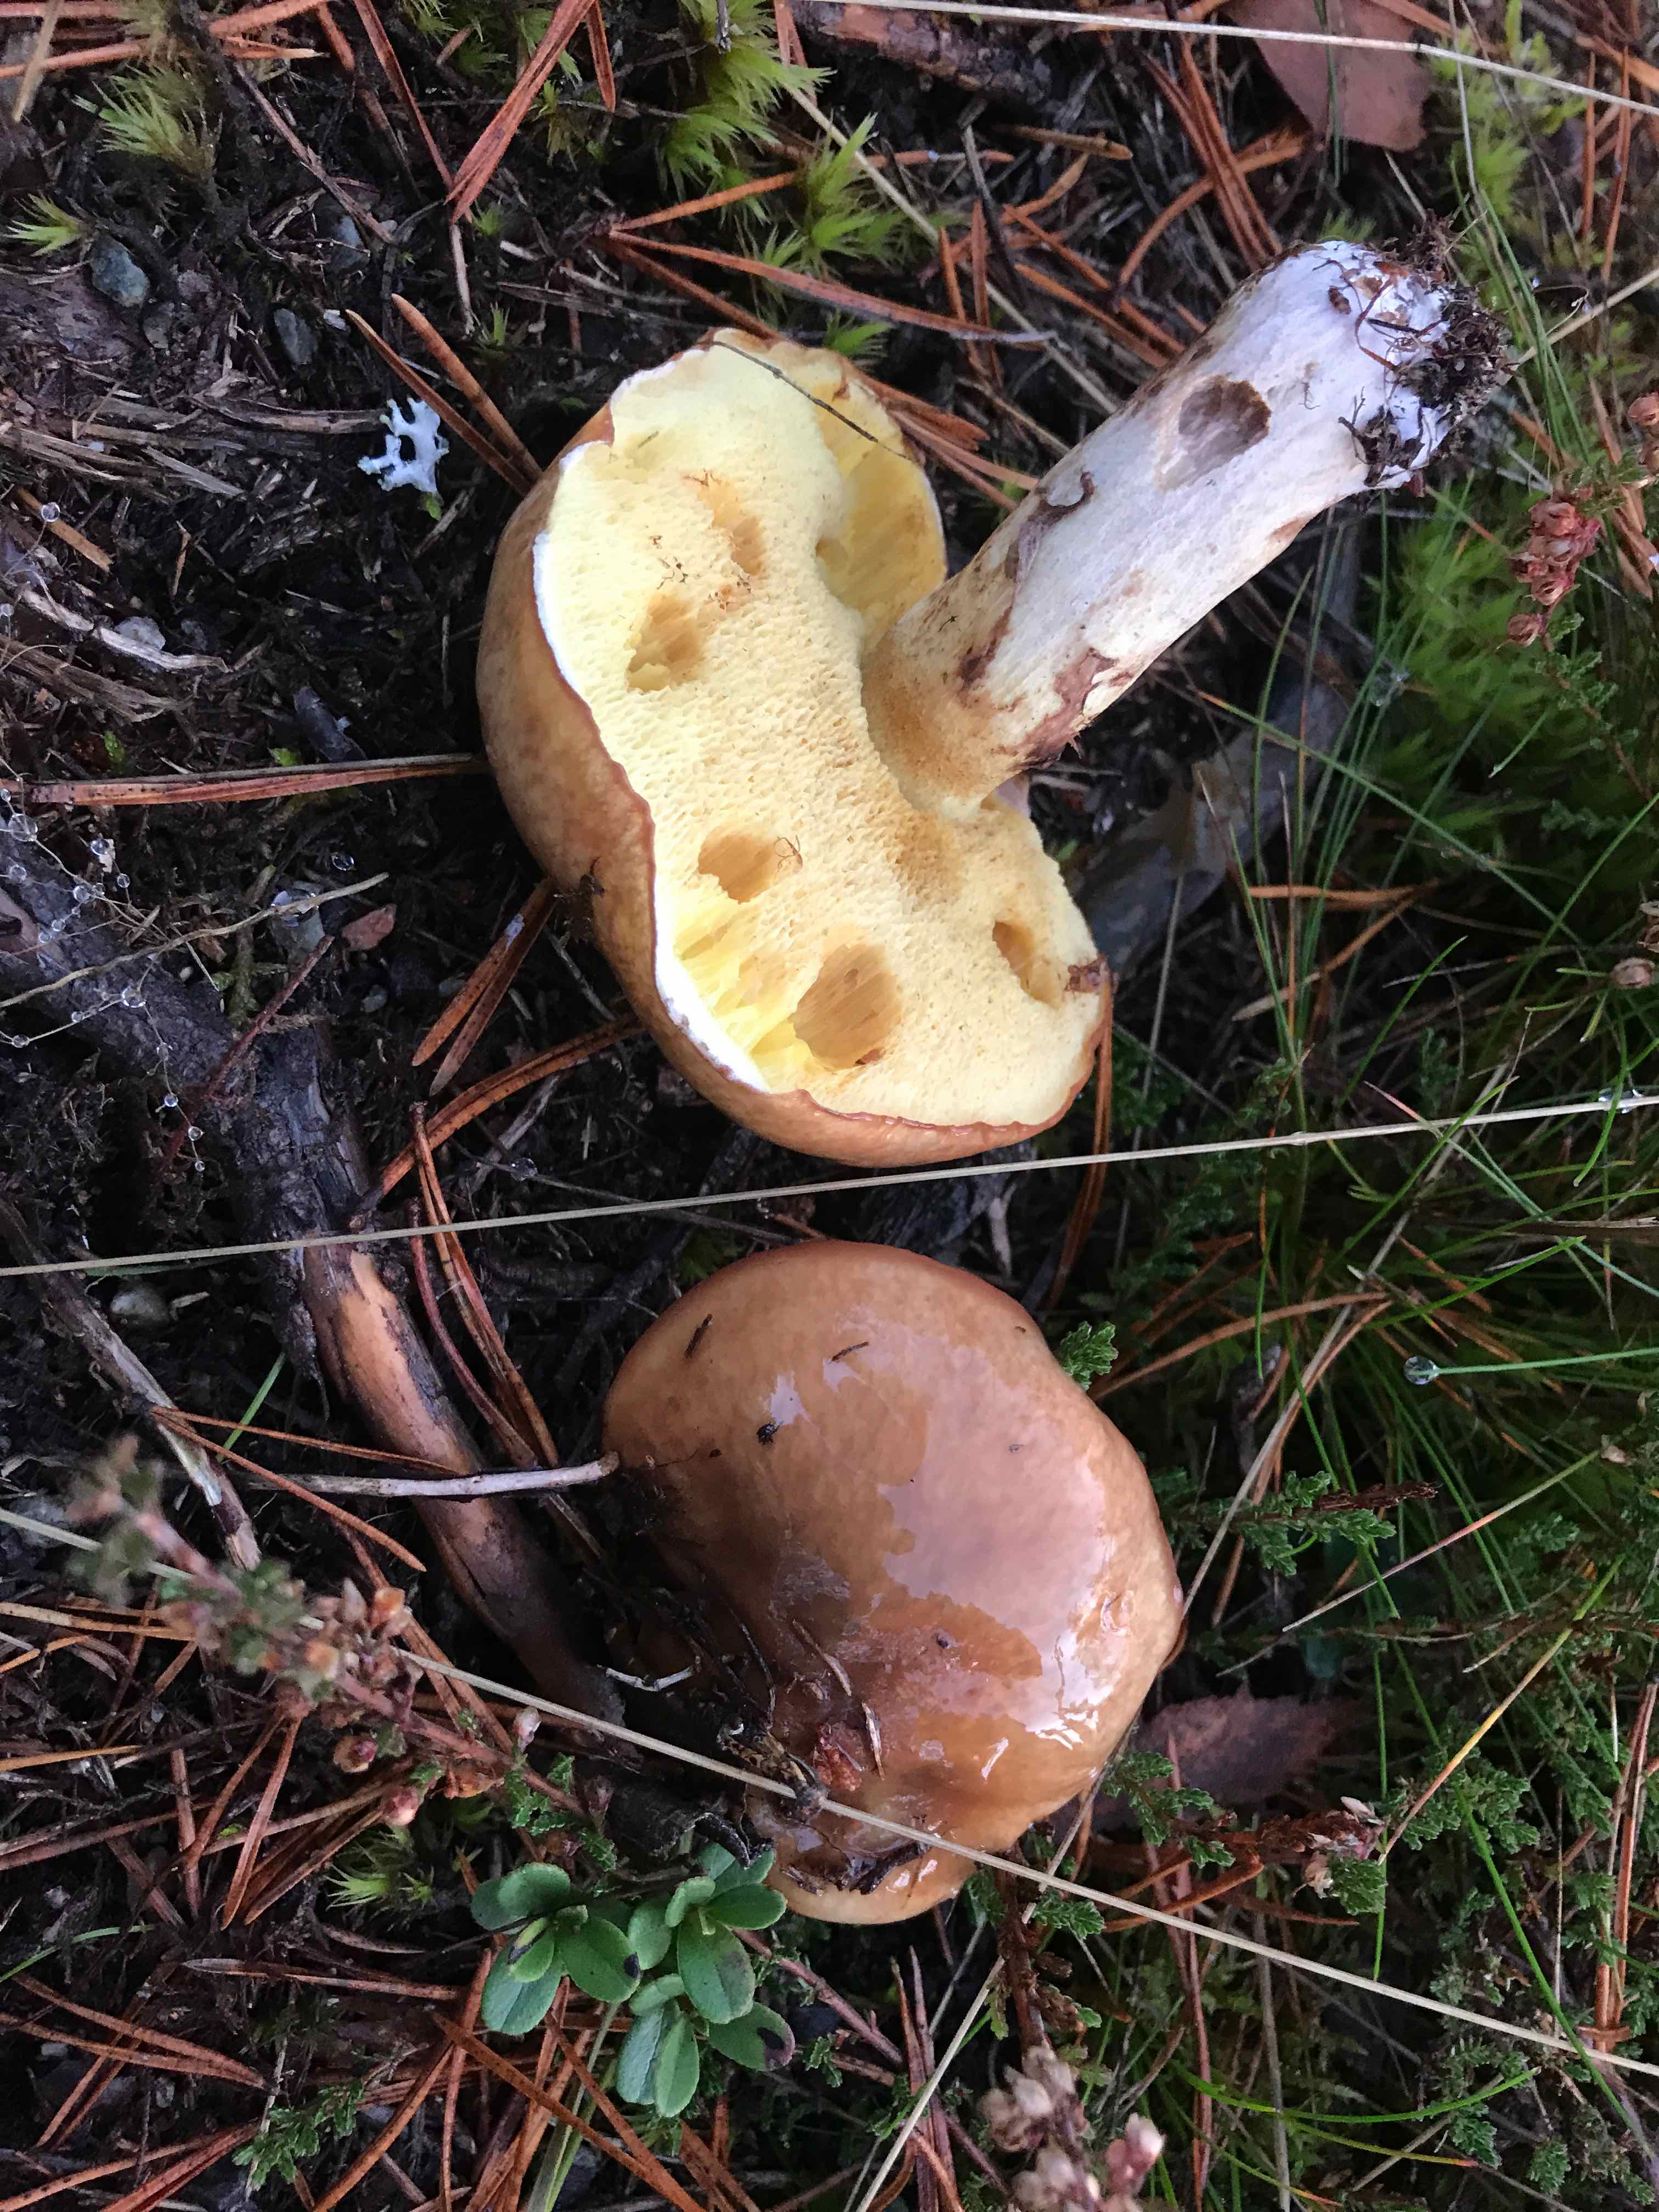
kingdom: Fungi
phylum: Basidiomycota
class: Agaricomycetes
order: Boletales
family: Suillaceae
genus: Suillus
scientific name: Suillus luteus
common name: brungul slimrørhat
